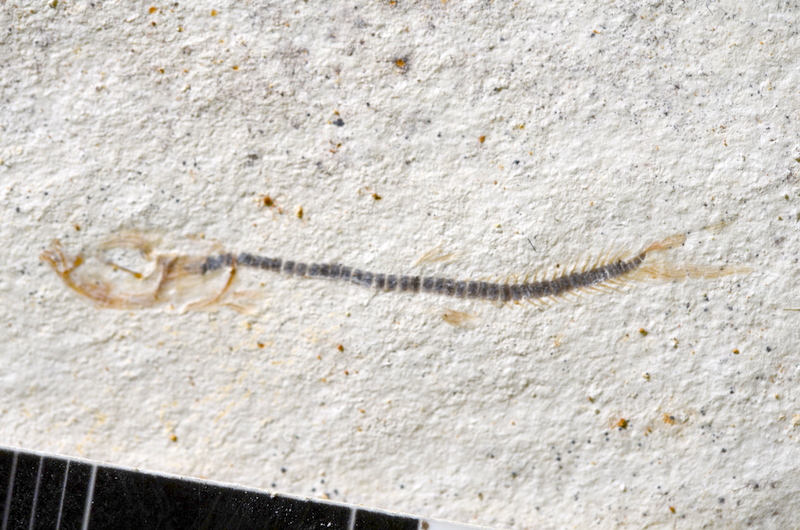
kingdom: Animalia
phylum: Chordata
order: Salmoniformes
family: Orthogonikleithridae
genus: Orthogonikleithrus
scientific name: Orthogonikleithrus hoelli
